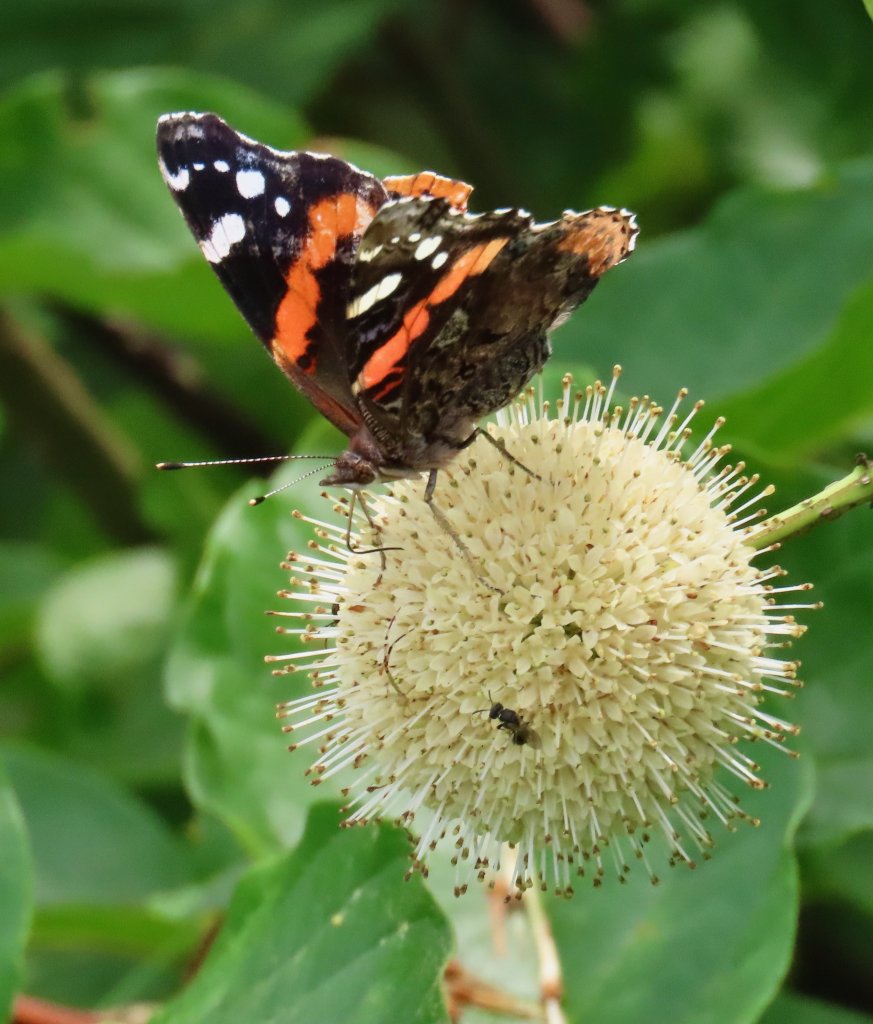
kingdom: Animalia
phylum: Arthropoda
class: Insecta
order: Lepidoptera
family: Nymphalidae
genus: Vanessa
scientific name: Vanessa atalanta
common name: Red Admiral
